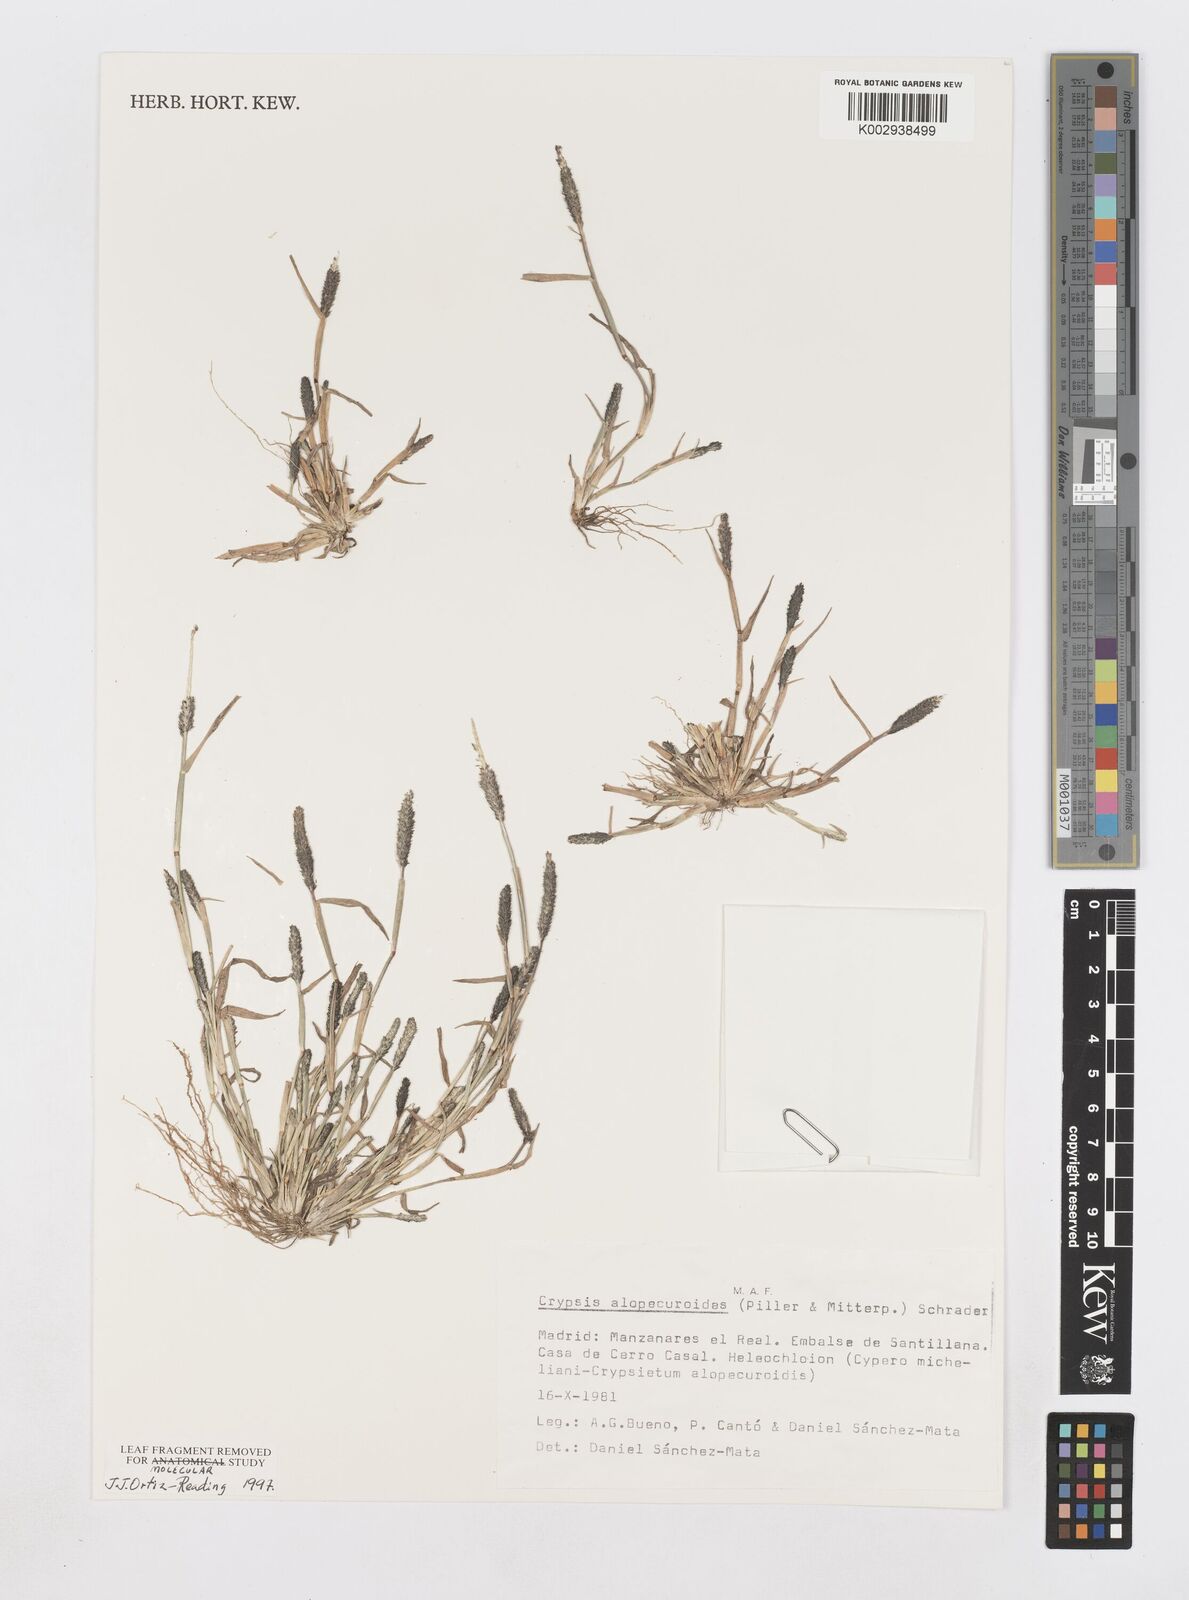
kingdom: Plantae
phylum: Tracheophyta
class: Liliopsida
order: Poales
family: Poaceae
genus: Sporobolus
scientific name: Sporobolus alopecuroides
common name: Foxtail pricklegrass
